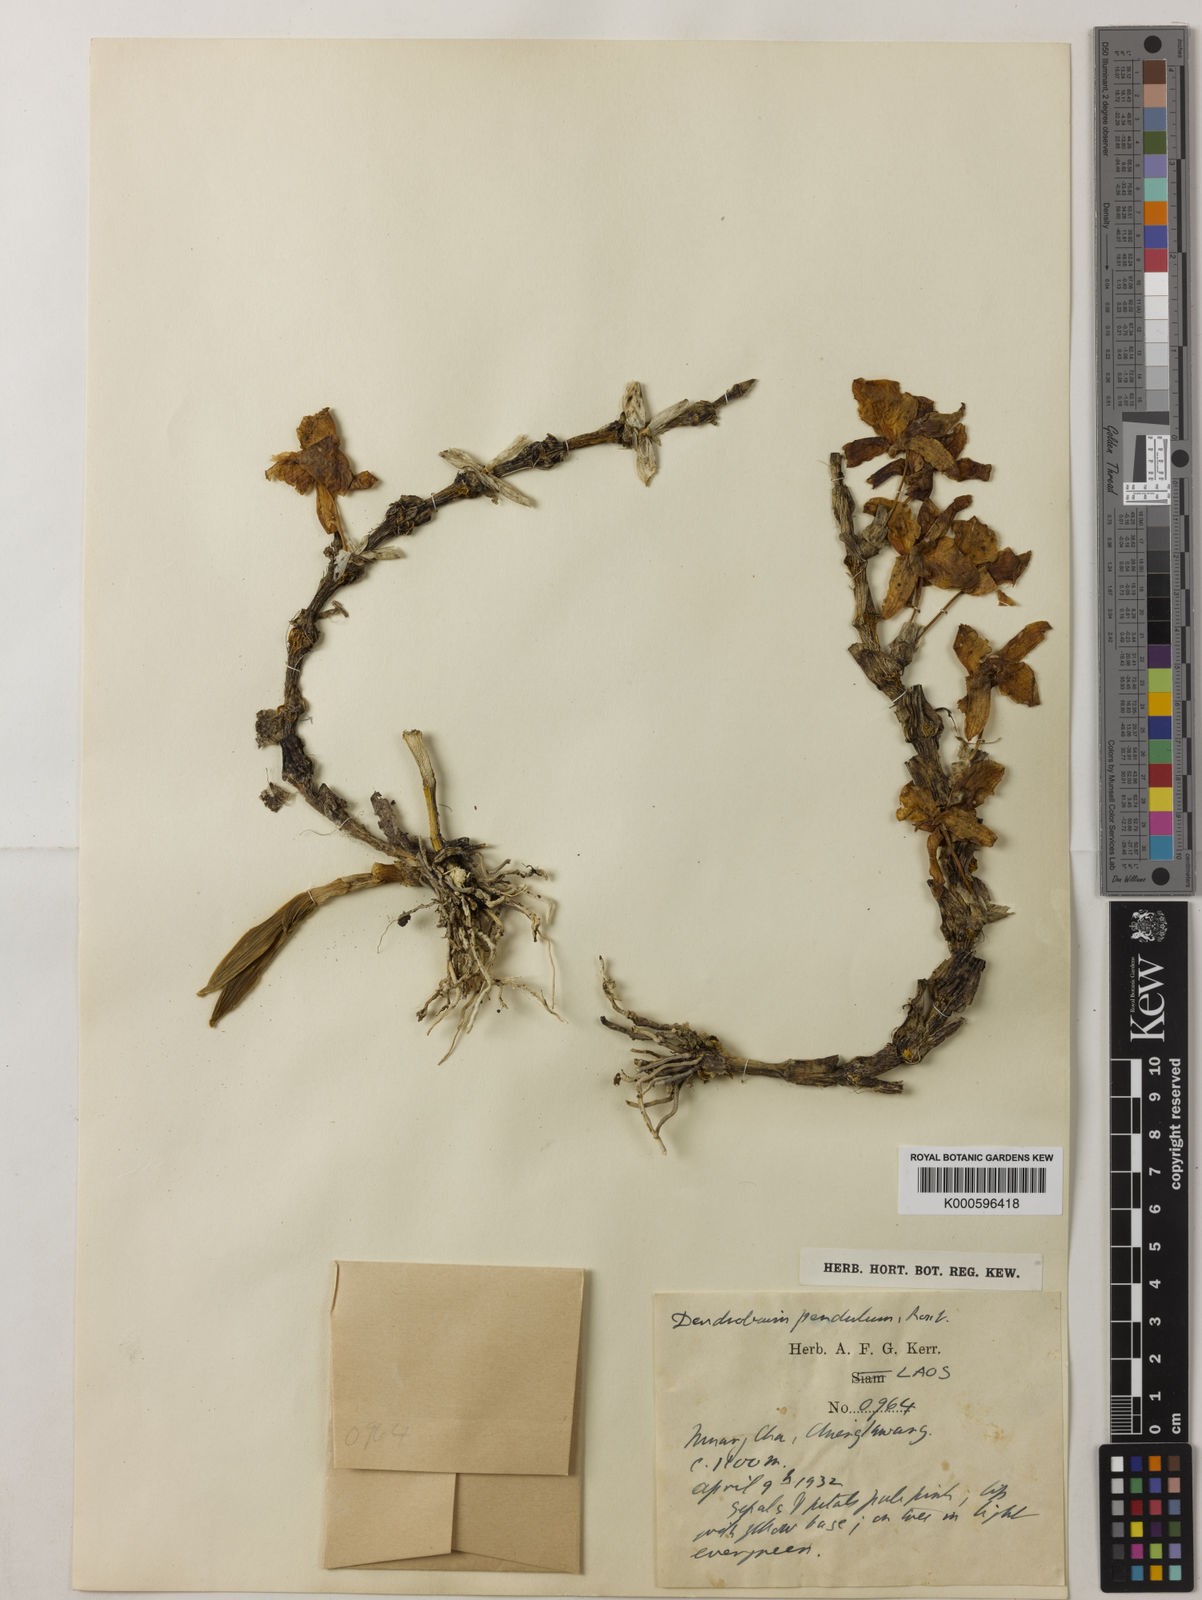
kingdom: Plantae
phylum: Tracheophyta
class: Liliopsida
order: Asparagales
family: Orchidaceae
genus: Dendrobium
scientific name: Dendrobium pendulum
